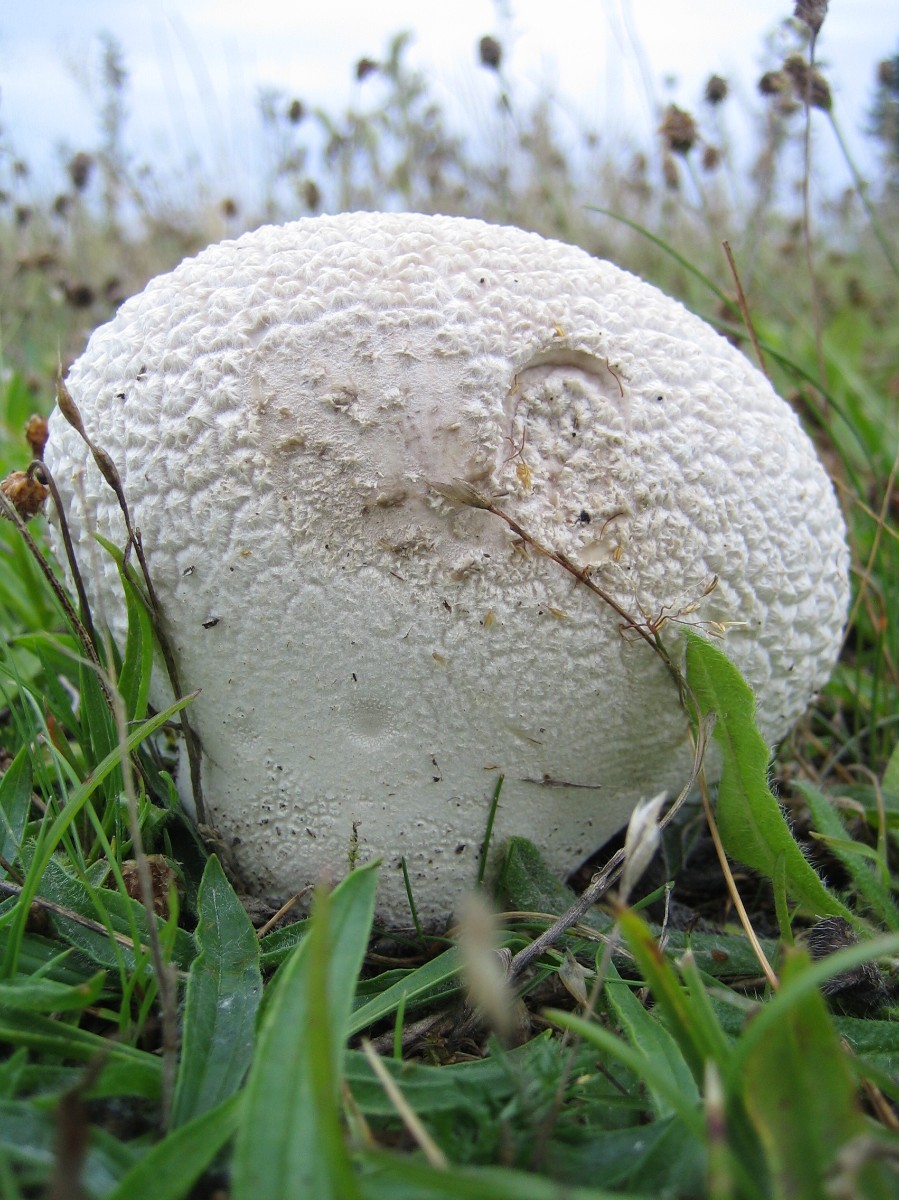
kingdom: Fungi
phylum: Basidiomycota
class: Agaricomycetes
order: Agaricales
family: Lycoperdaceae
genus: Bovistella
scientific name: Bovistella utriformis
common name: skællet støvbold
